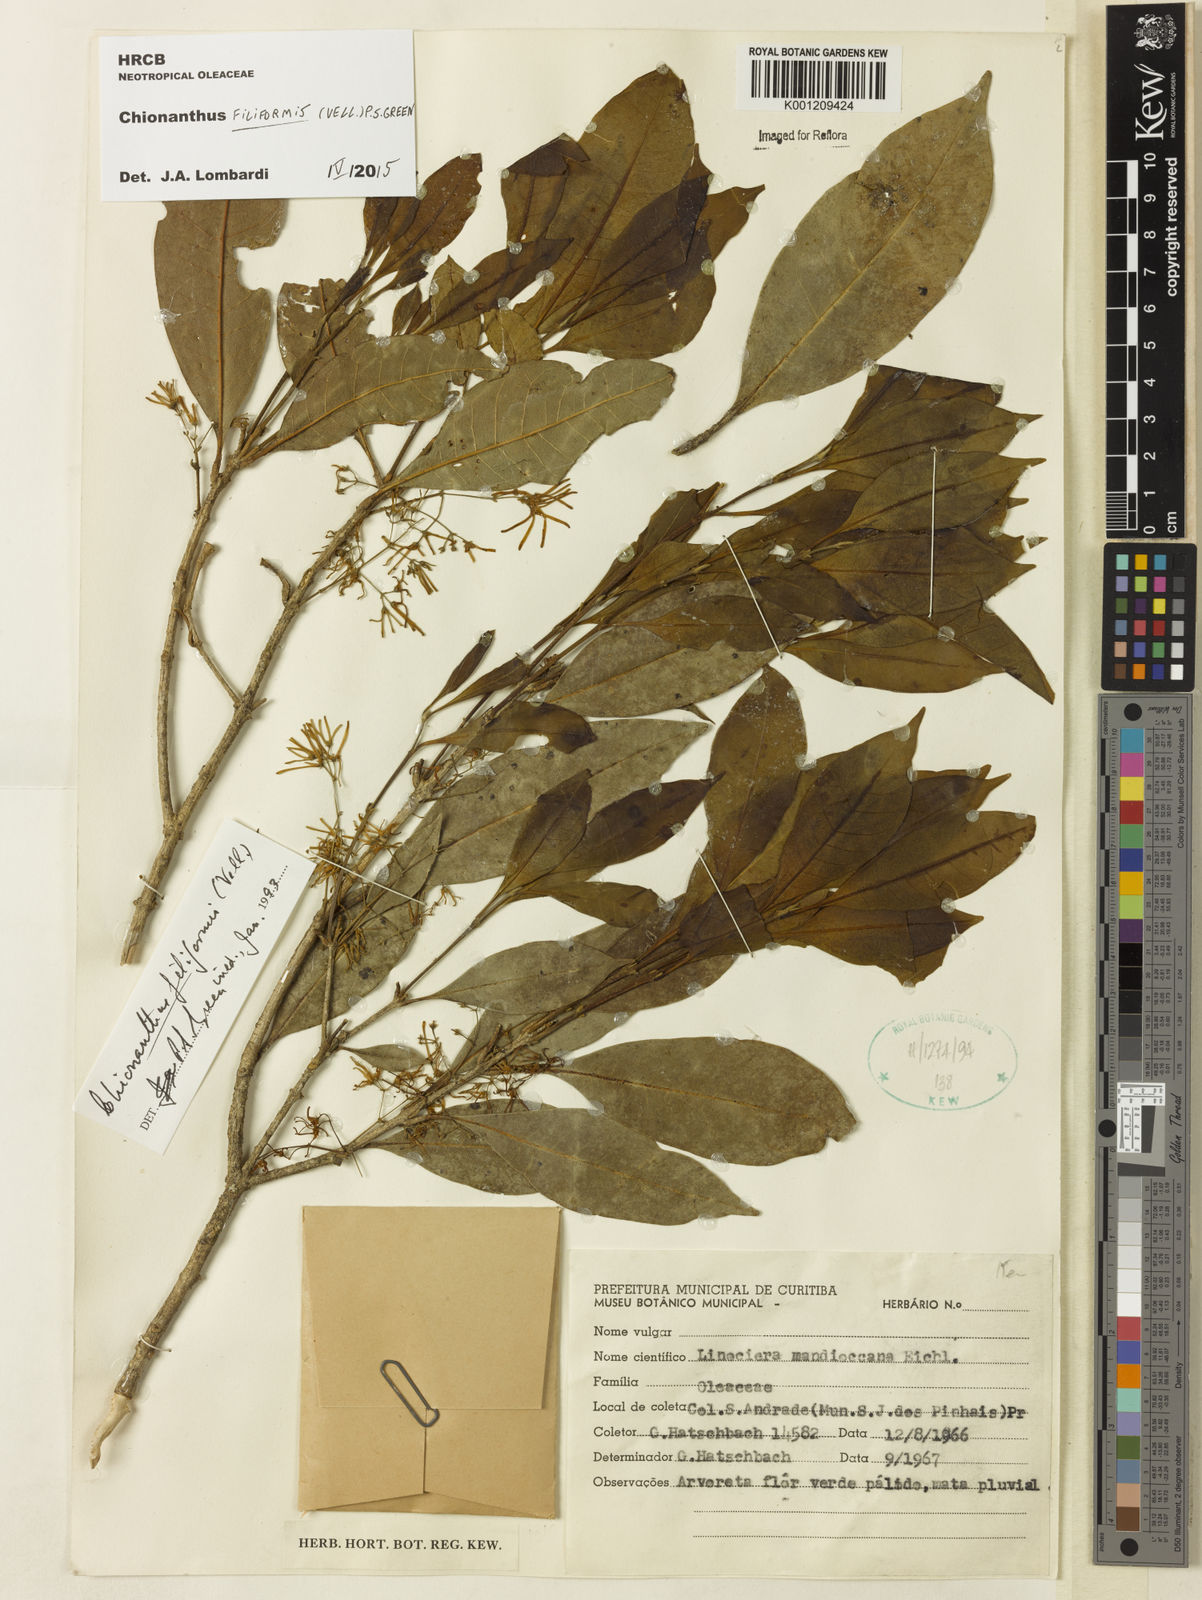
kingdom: Plantae
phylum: Tracheophyta
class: Magnoliopsida
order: Lamiales
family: Oleaceae
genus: Chionanthus
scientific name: Chionanthus filiformis
